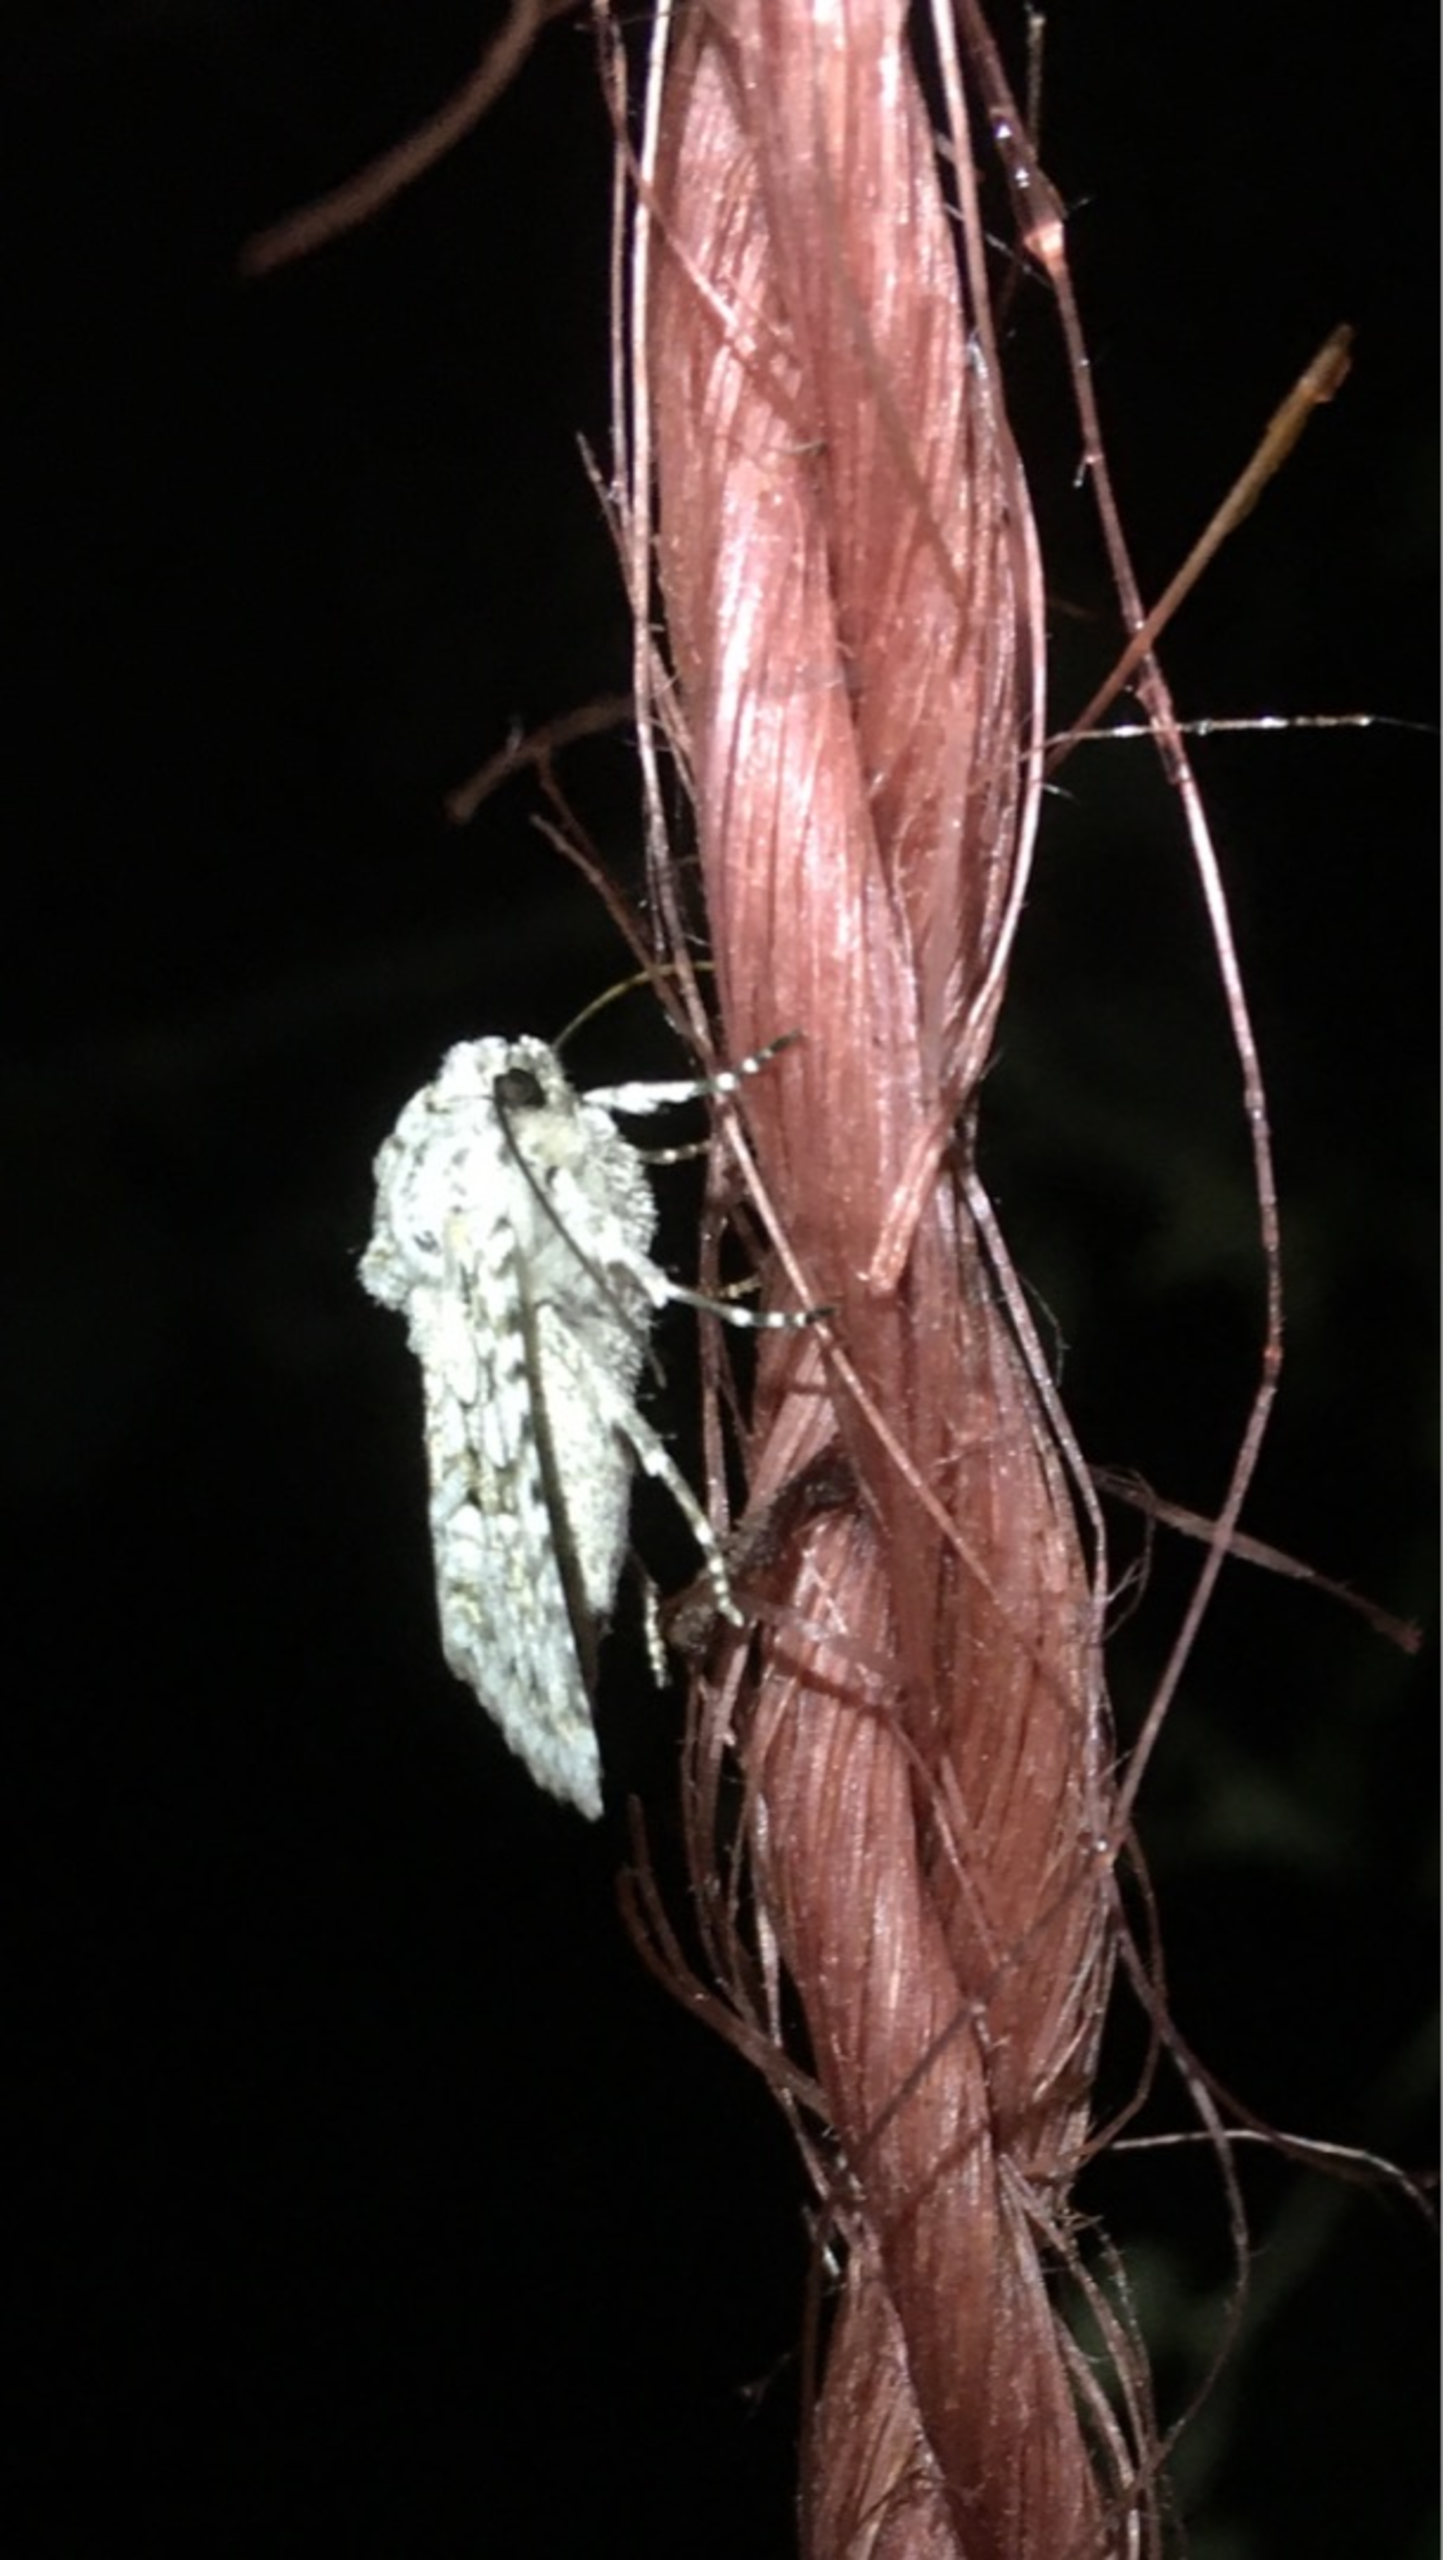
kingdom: Animalia
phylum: Arthropoda
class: Insecta
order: Lepidoptera
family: Noctuidae
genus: Antitype
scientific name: Antitype chi
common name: Chi-ugle
